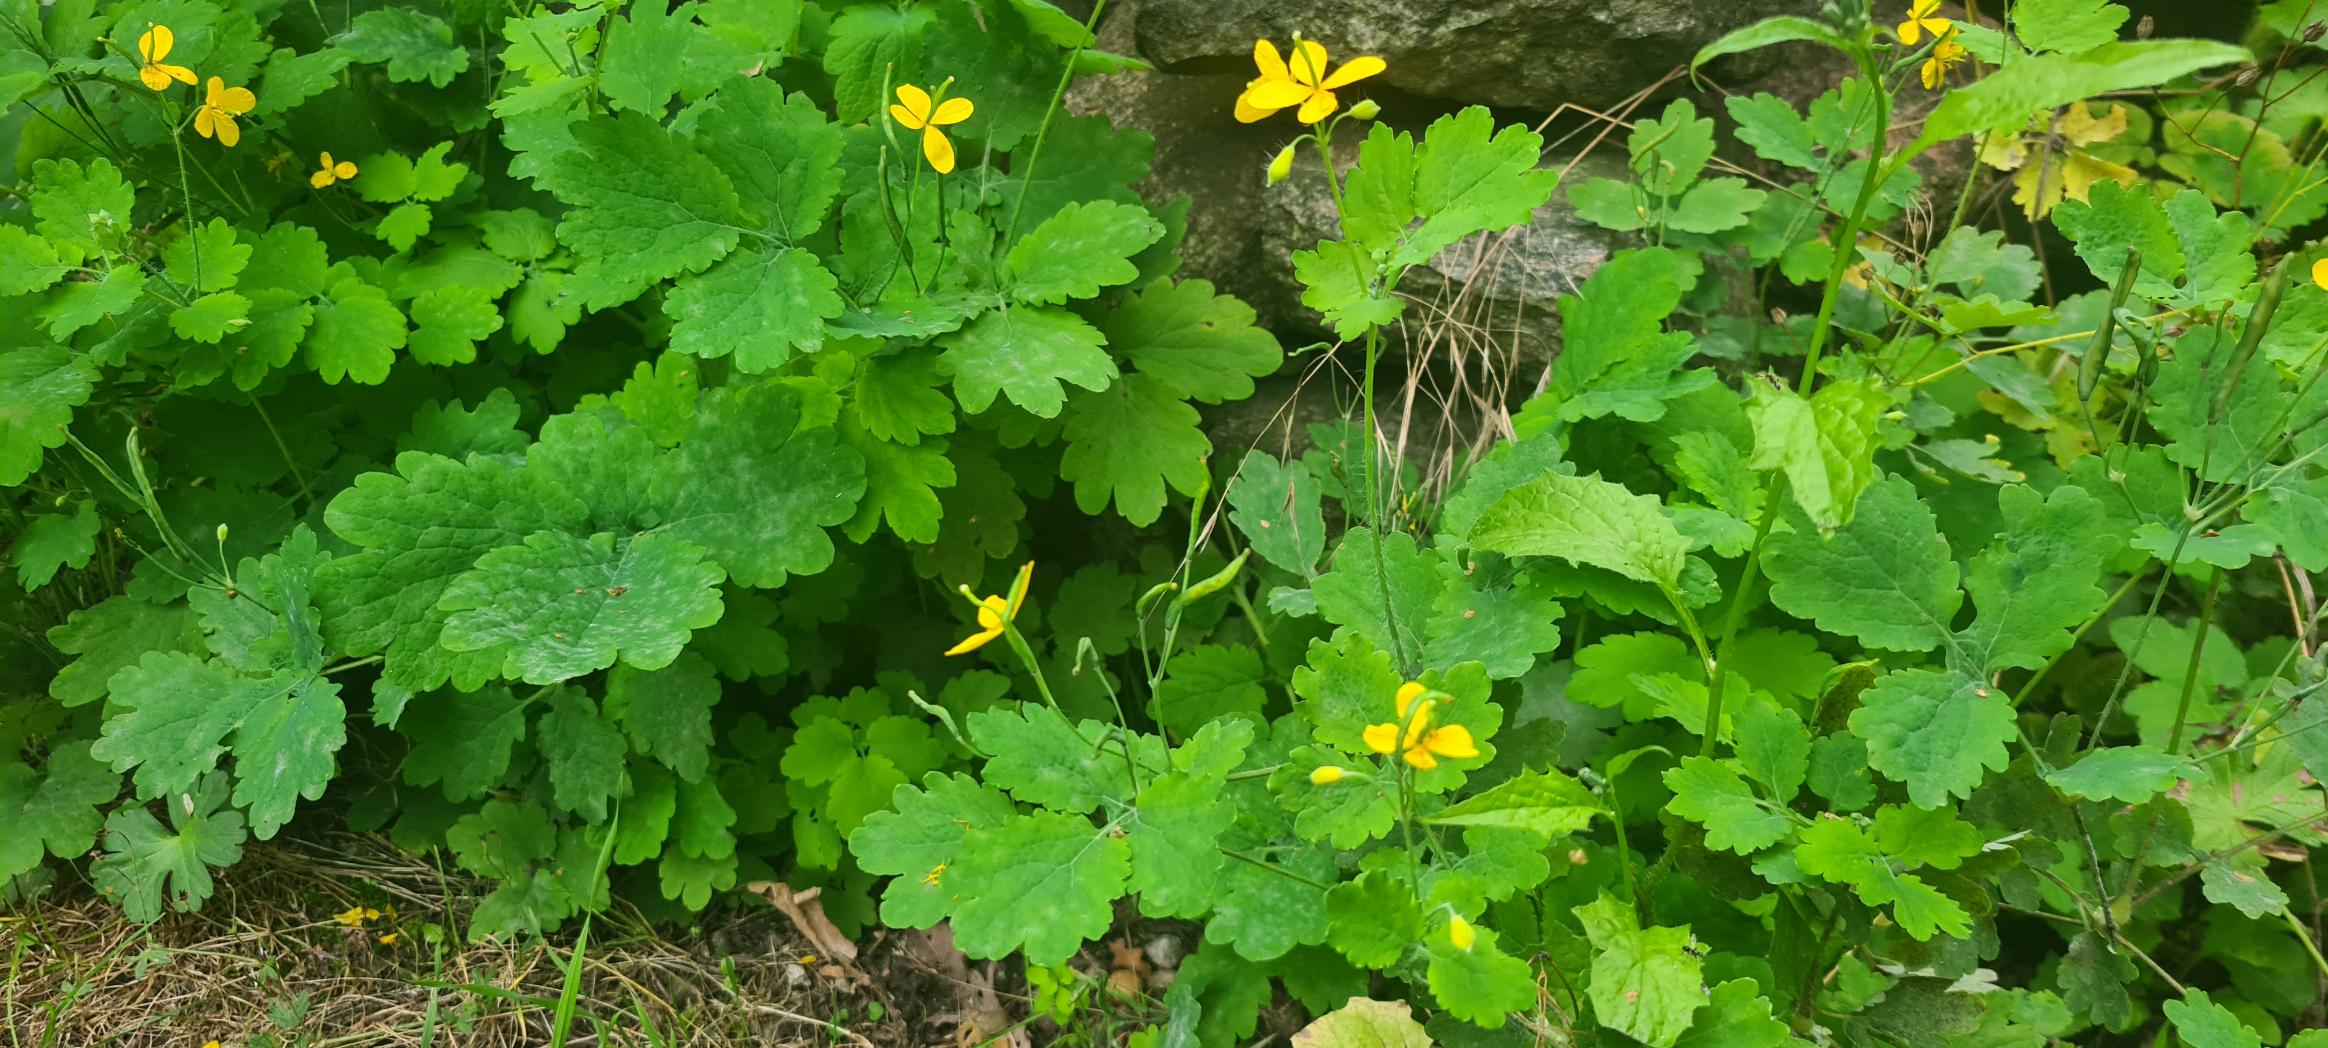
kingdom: Plantae
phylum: Tracheophyta
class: Magnoliopsida
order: Ranunculales
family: Papaveraceae
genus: Chelidonium
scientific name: Chelidonium majus
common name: Svaleurt
